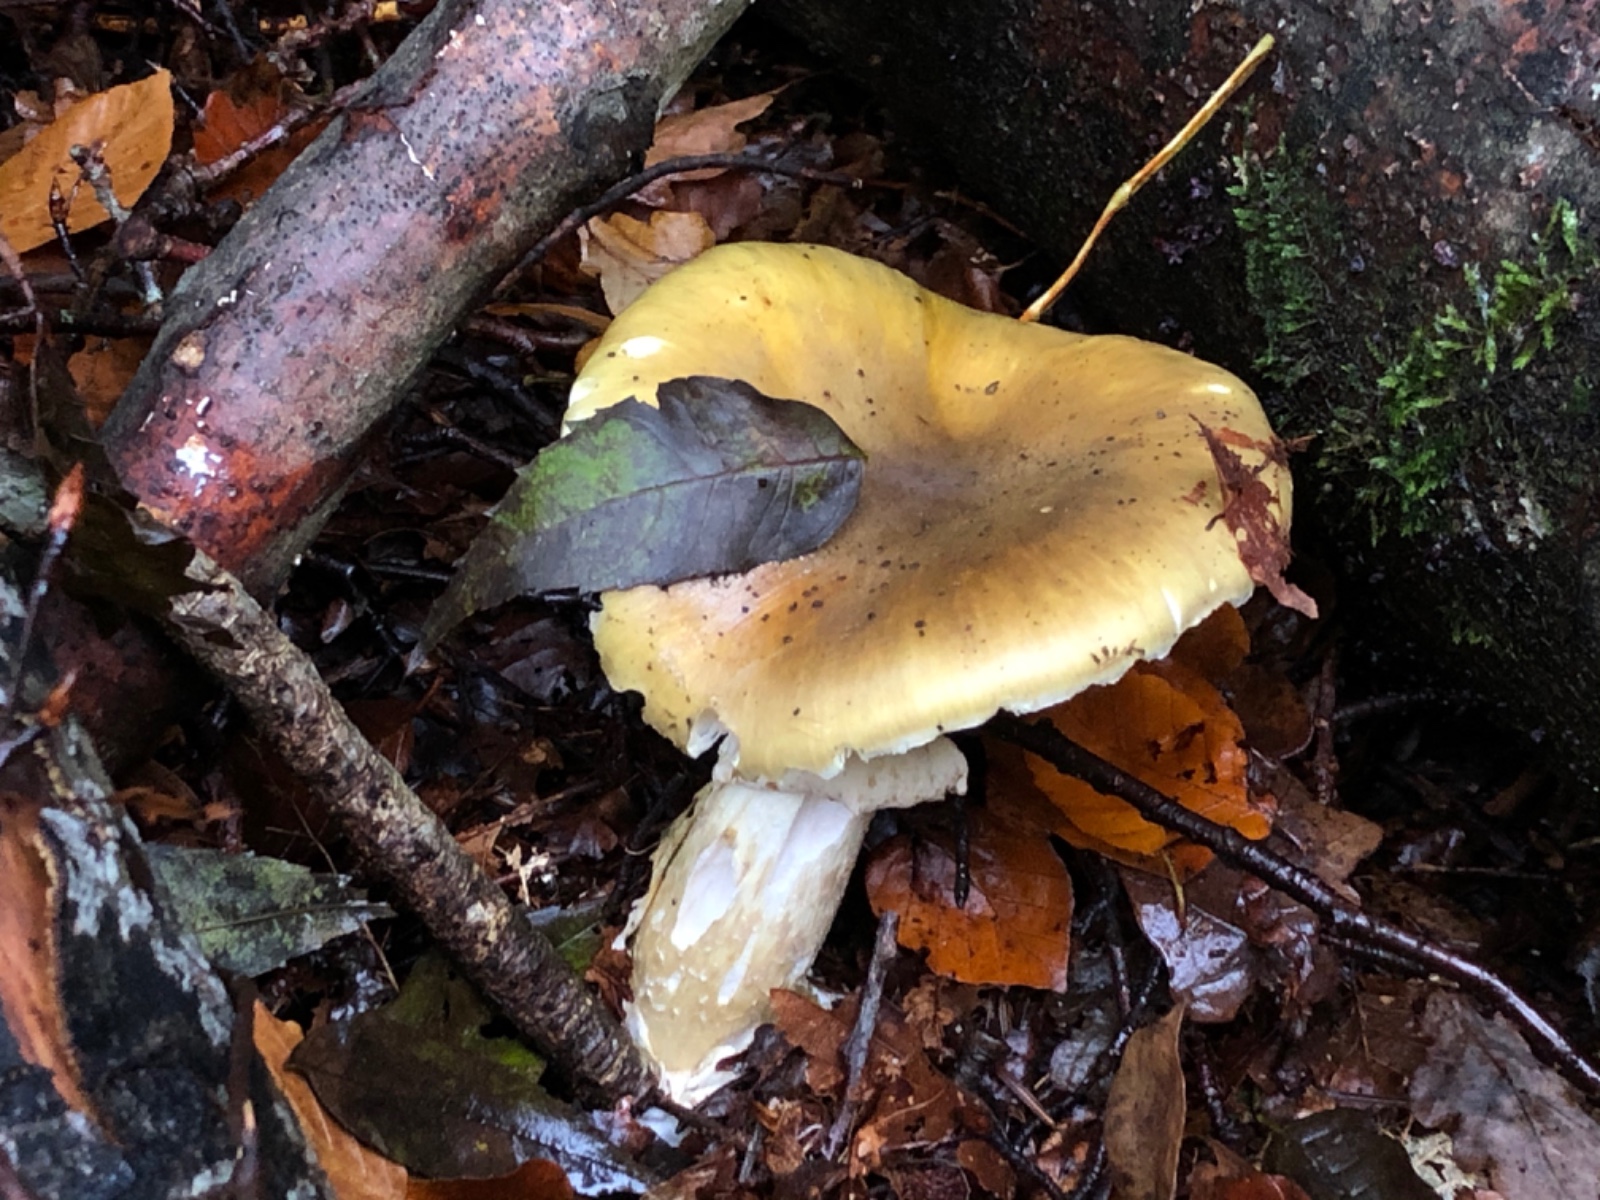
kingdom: Fungi
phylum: Basidiomycota
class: Agaricomycetes
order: Agaricales
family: Amanitaceae
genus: Amanita
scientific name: Amanita phalloides
